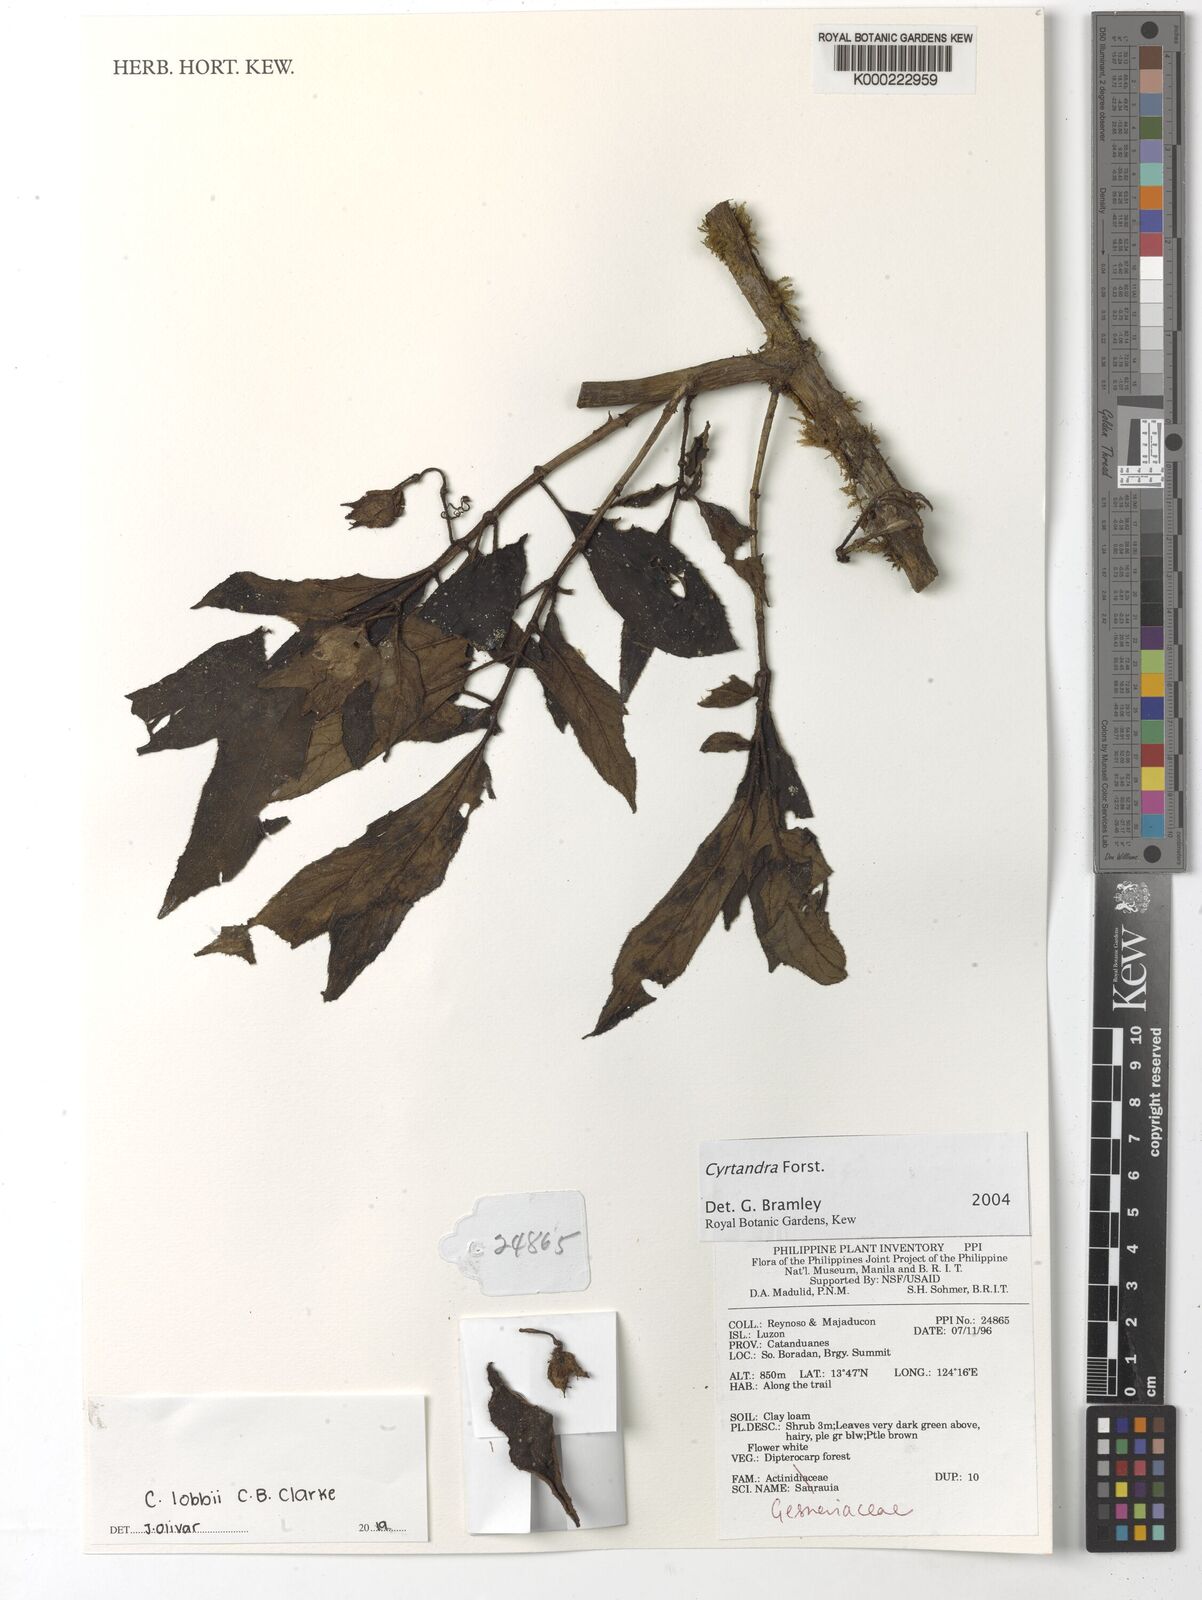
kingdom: Plantae
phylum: Tracheophyta
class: Magnoliopsida
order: Lamiales
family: Gesneriaceae
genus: Cyrtandra
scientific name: Cyrtandra
